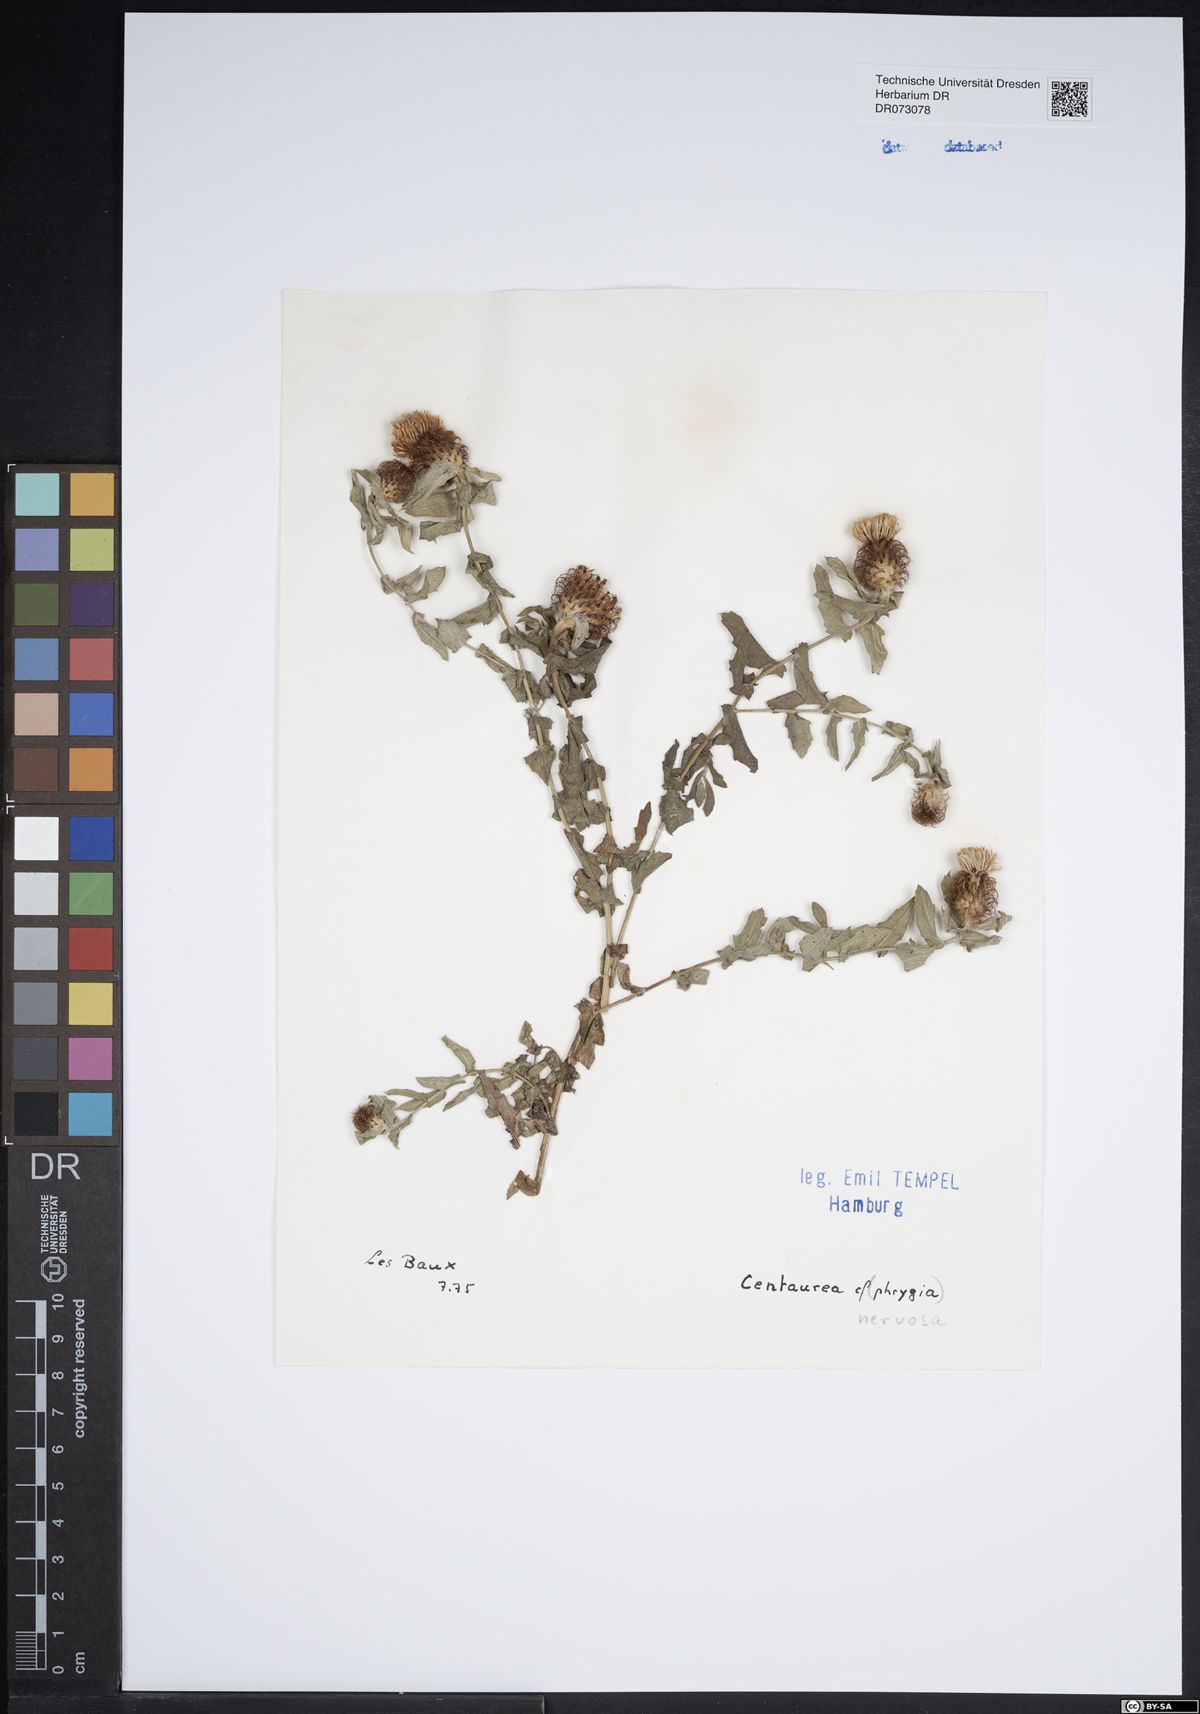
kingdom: Plantae
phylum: Tracheophyta
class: Magnoliopsida
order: Asterales
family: Asteraceae
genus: Glebionis
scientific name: Glebionis coronaria
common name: Crowndaisy
